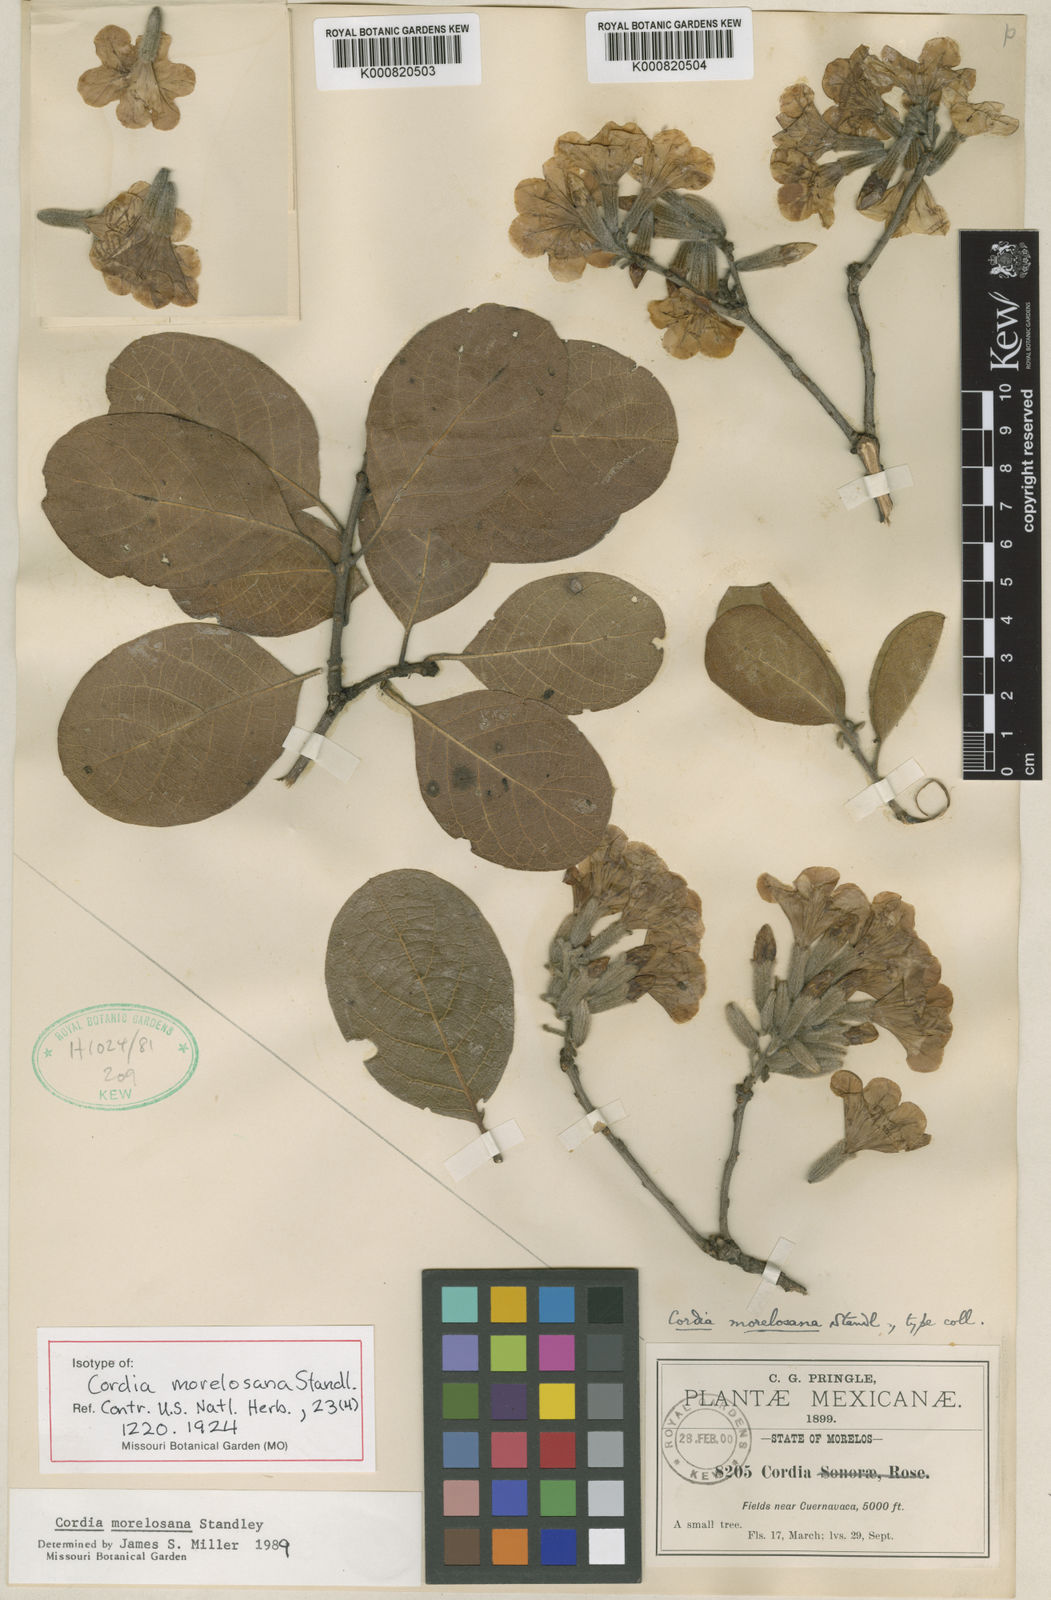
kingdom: Plantae
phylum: Tracheophyta
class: Magnoliopsida
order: Boraginales
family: Cordiaceae
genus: Cordia
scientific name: Cordia morelosana
